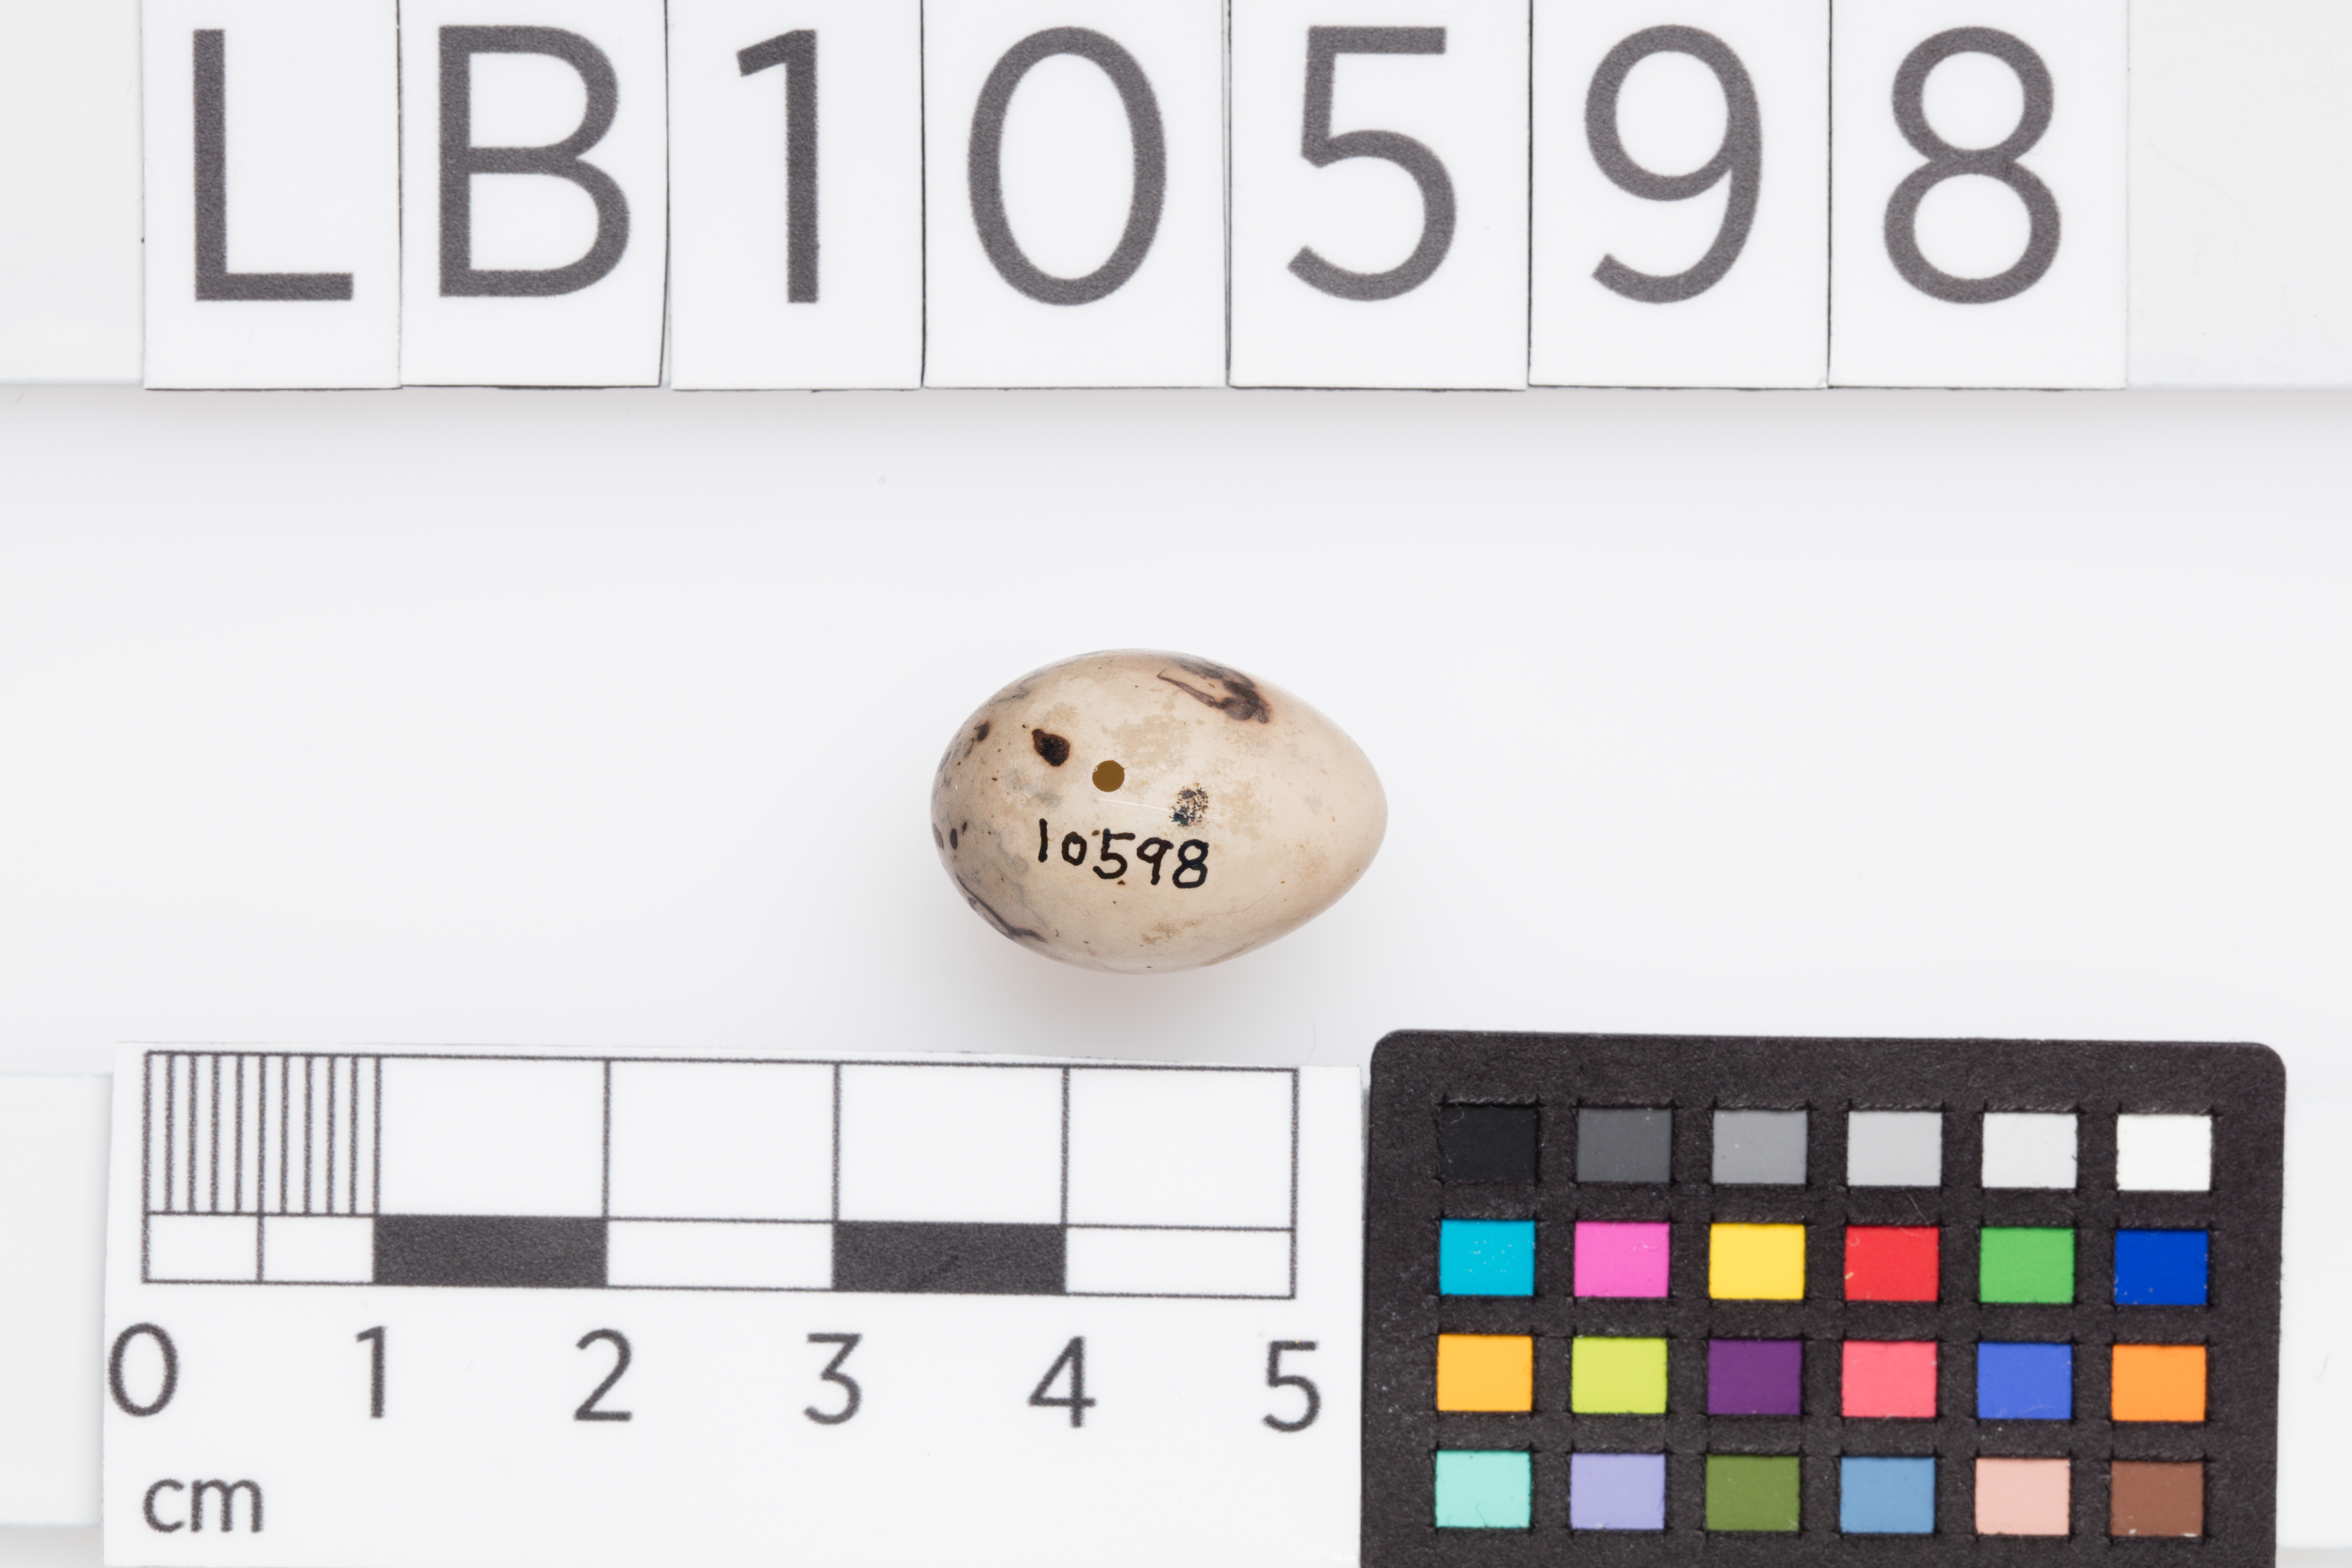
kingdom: Animalia
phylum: Chordata
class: Aves
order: Passeriformes
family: Emberizidae
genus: Emberiza
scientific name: Emberiza schoeniclus
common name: Reed bunting
